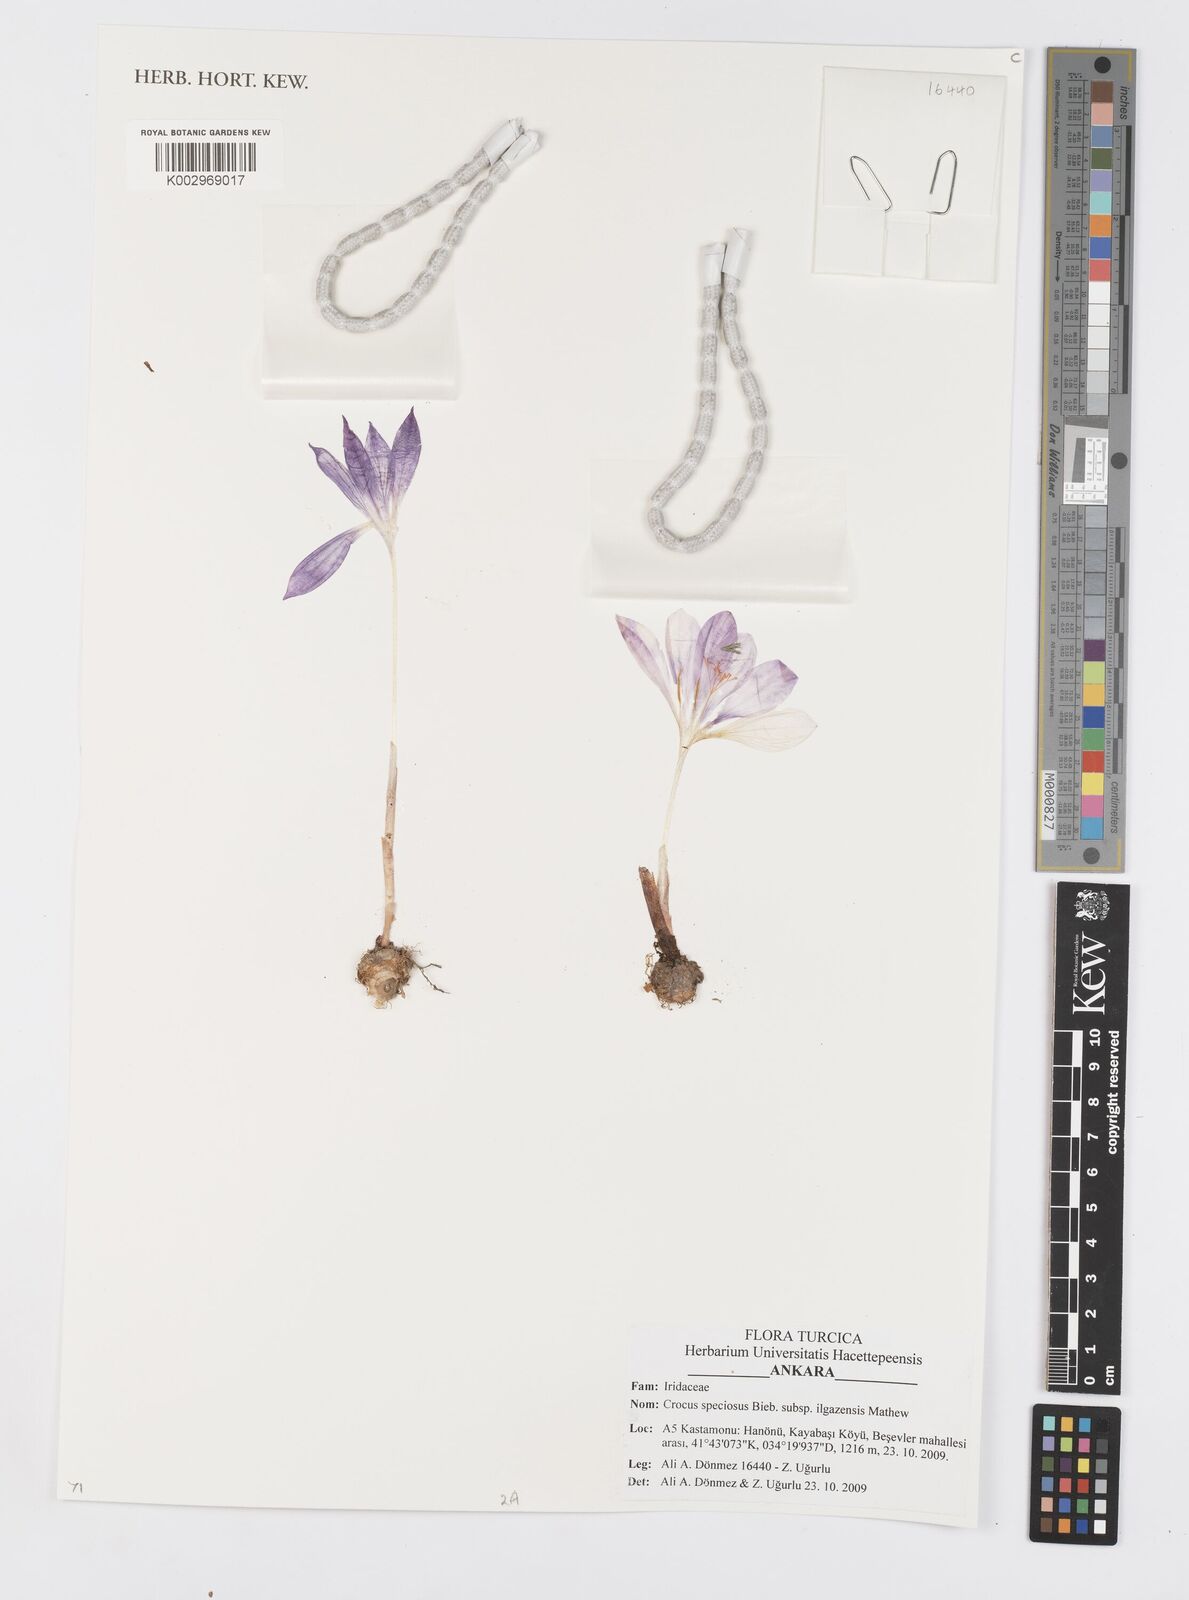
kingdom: Plantae
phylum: Tracheophyta
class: Liliopsida
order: Asparagales
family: Iridaceae
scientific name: Iridaceae
